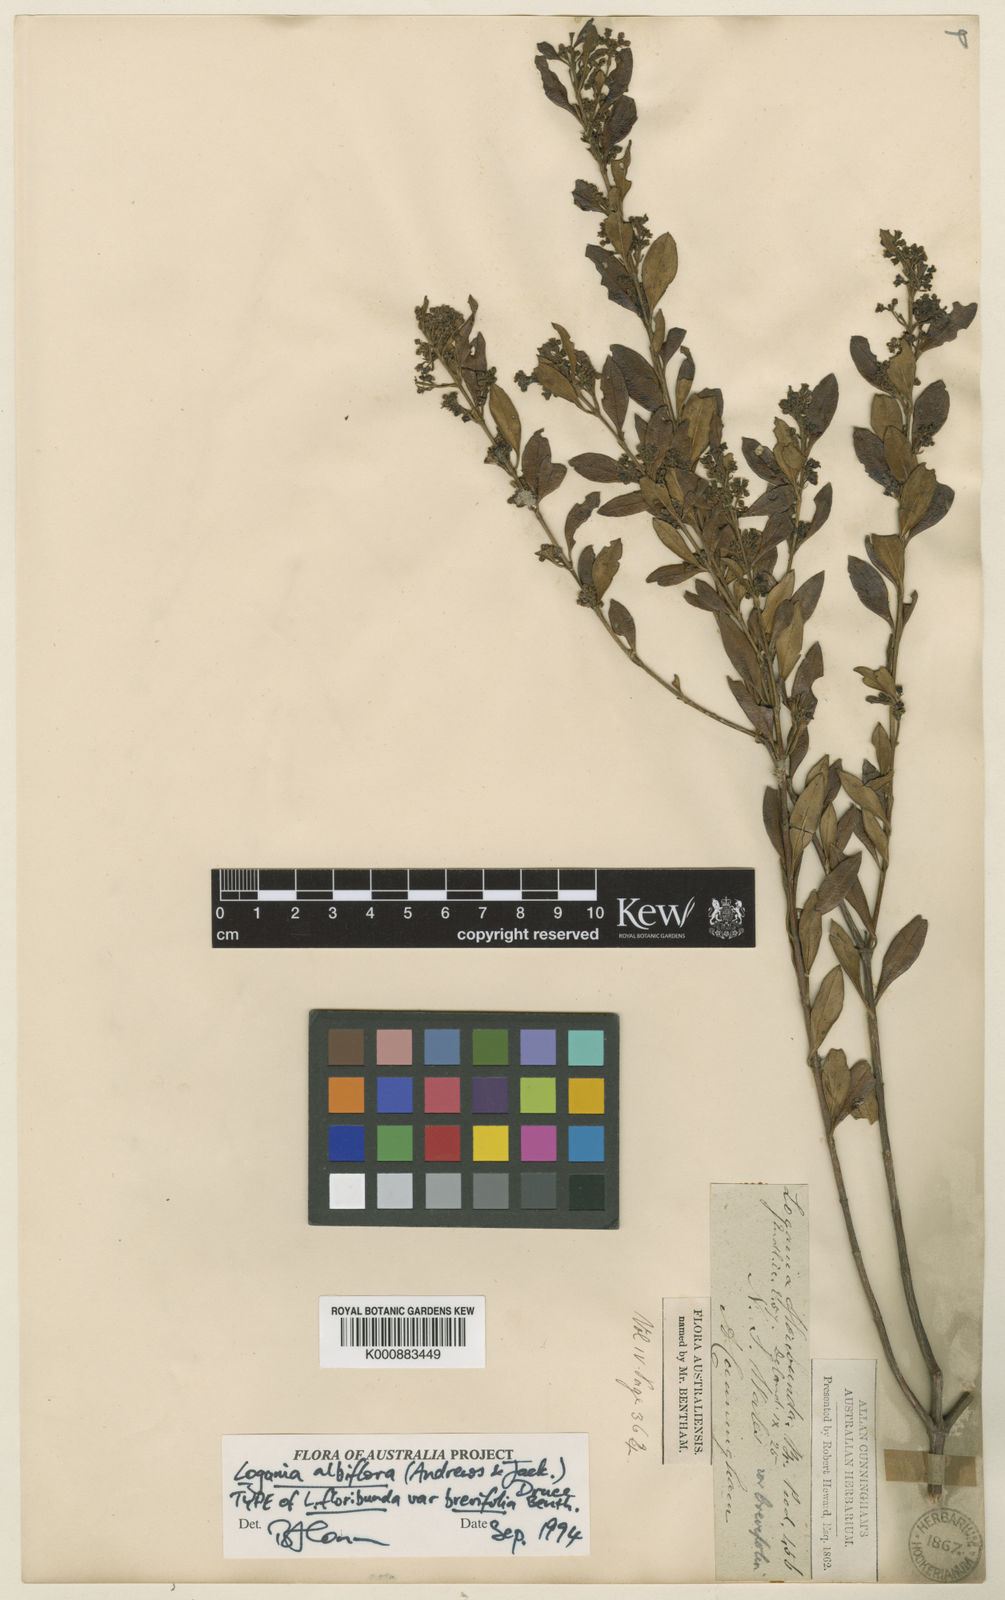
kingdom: Plantae
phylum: Tracheophyta
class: Magnoliopsida
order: Gentianales
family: Loganiaceae
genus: Logania
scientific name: Logania albiflora
